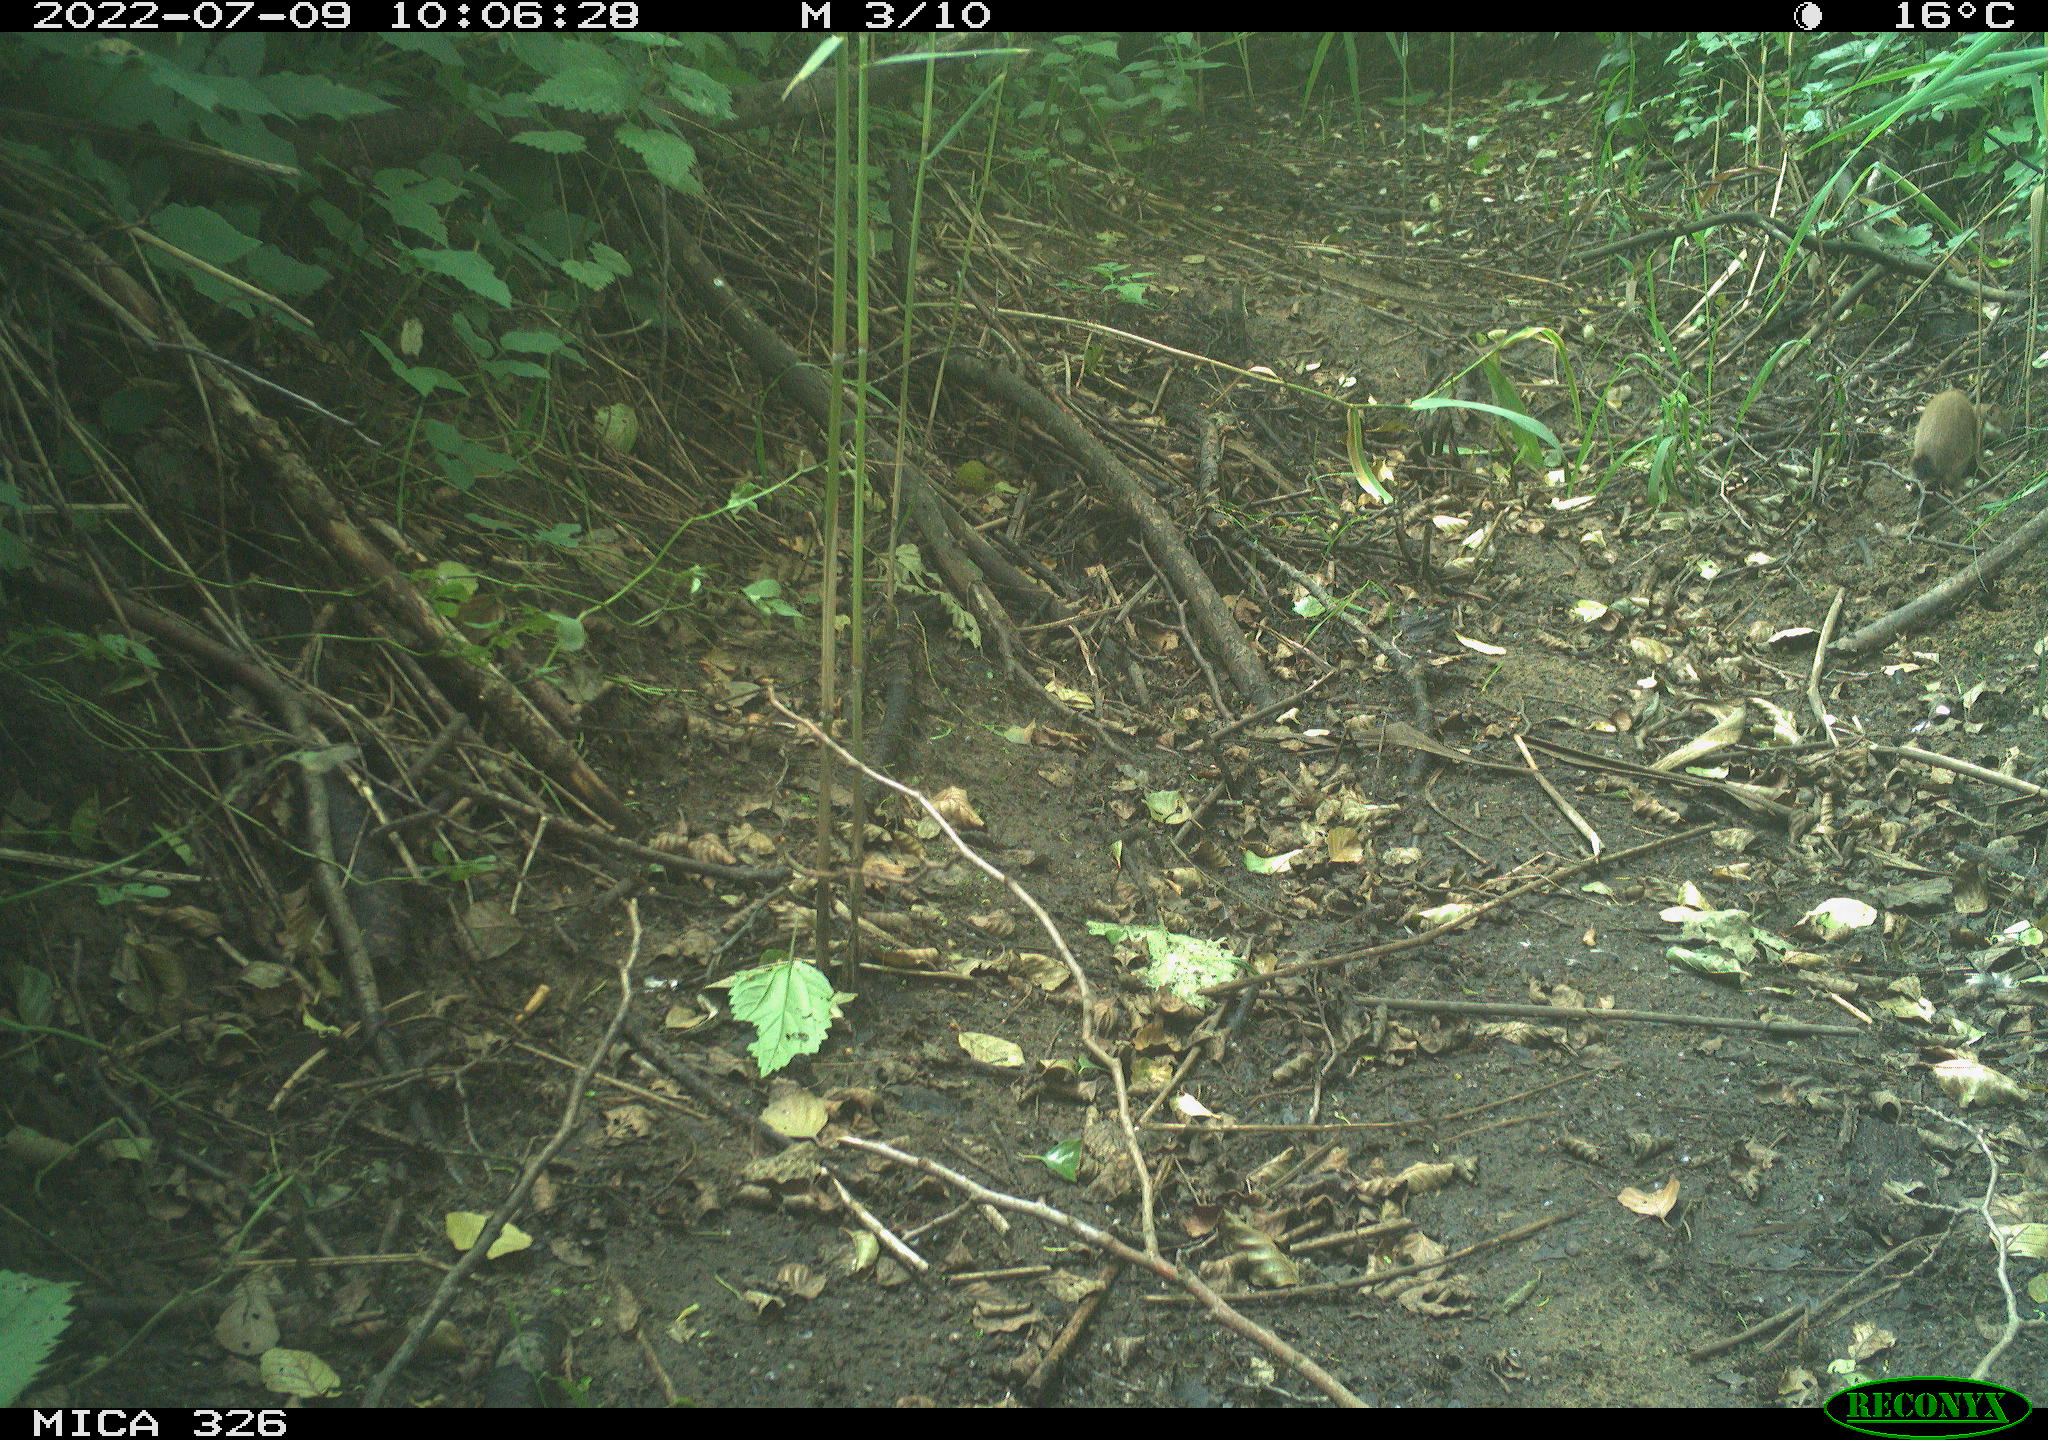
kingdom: Animalia
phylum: Chordata
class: Mammalia
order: Carnivora
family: Mustelidae
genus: Mustela
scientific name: Mustela erminea
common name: Stoat
